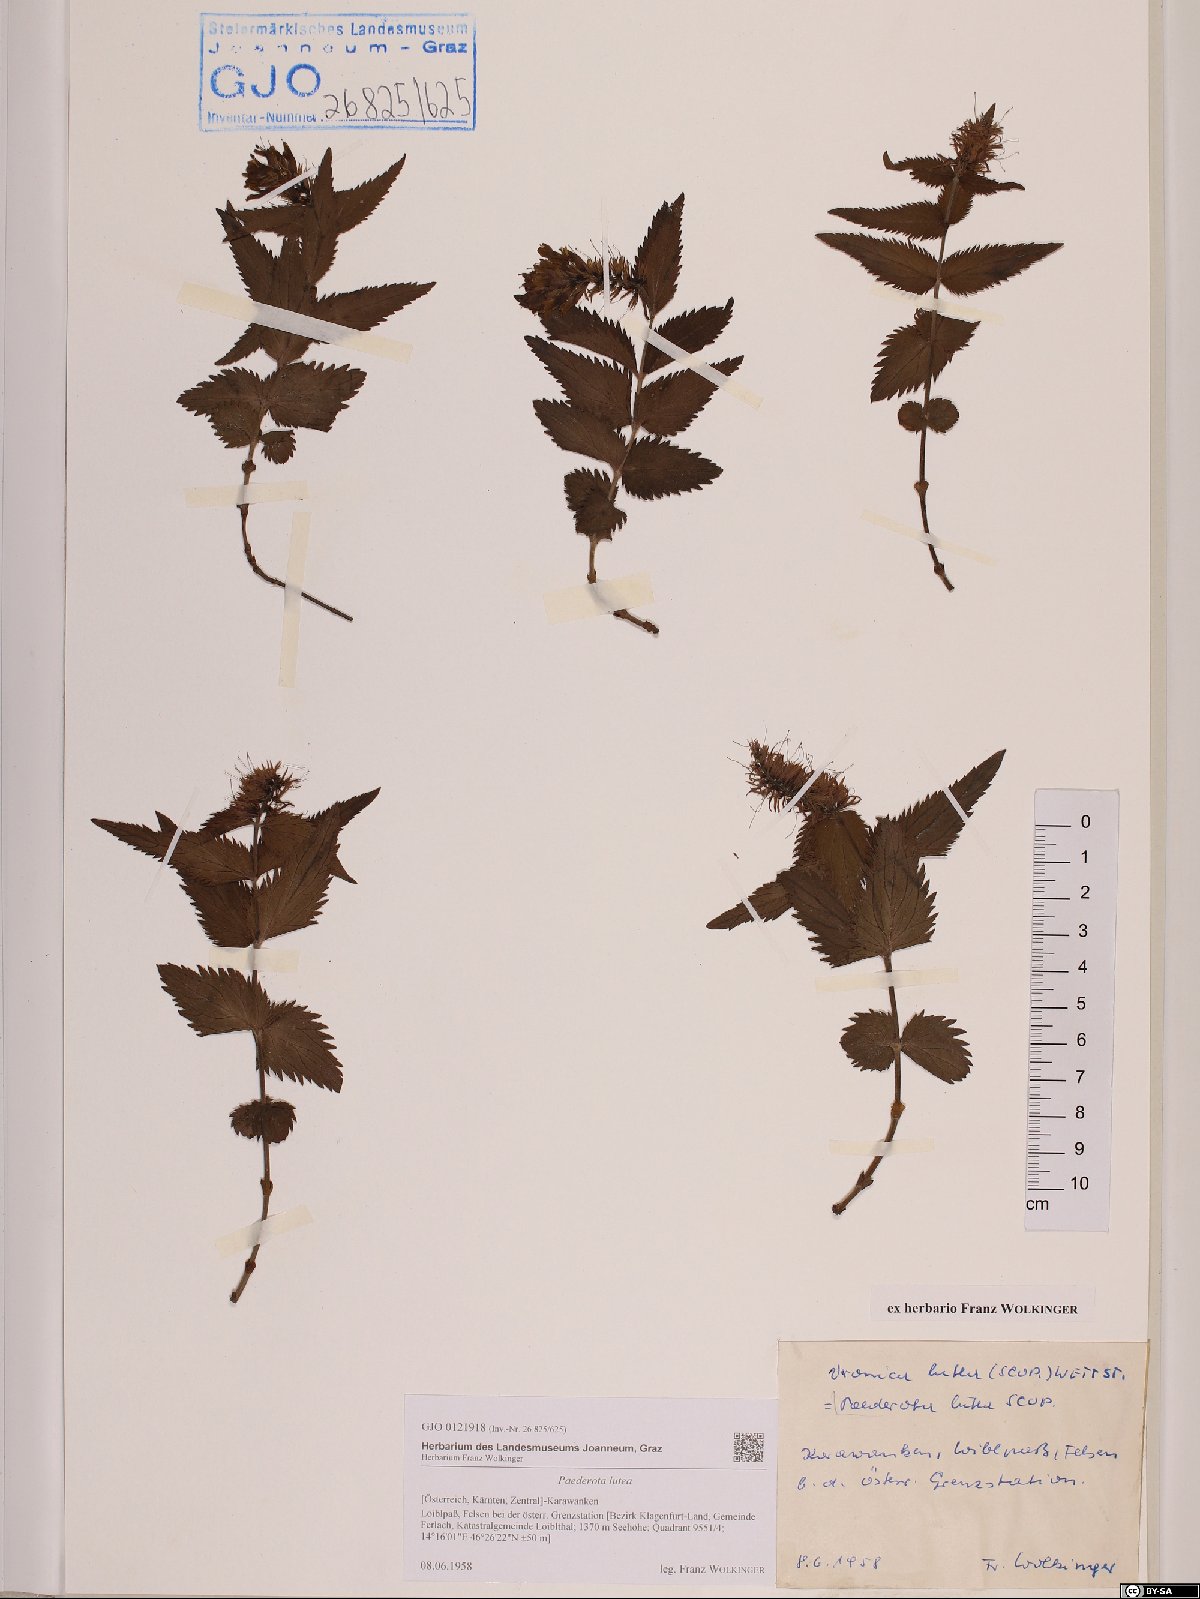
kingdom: Plantae
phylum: Tracheophyta
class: Magnoliopsida
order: Lamiales
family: Plantaginaceae
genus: Paederota
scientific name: Paederota lutea
